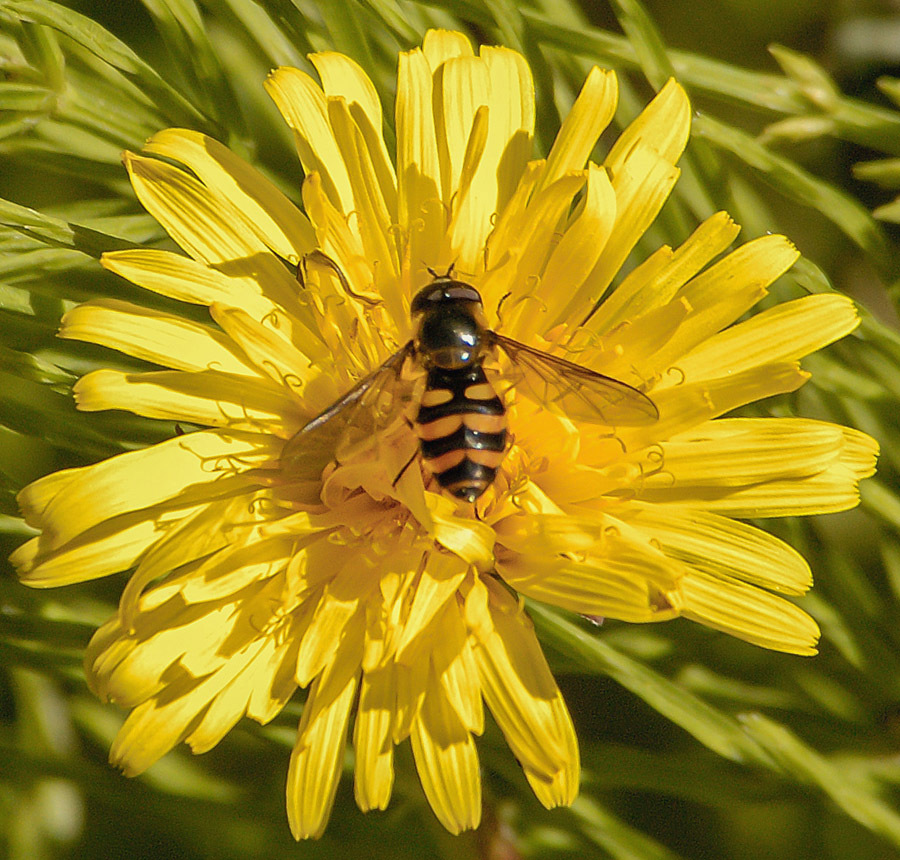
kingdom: Animalia
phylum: Arthropoda
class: Insecta
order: Diptera
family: Syrphidae
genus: Syrphus
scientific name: Syrphus
